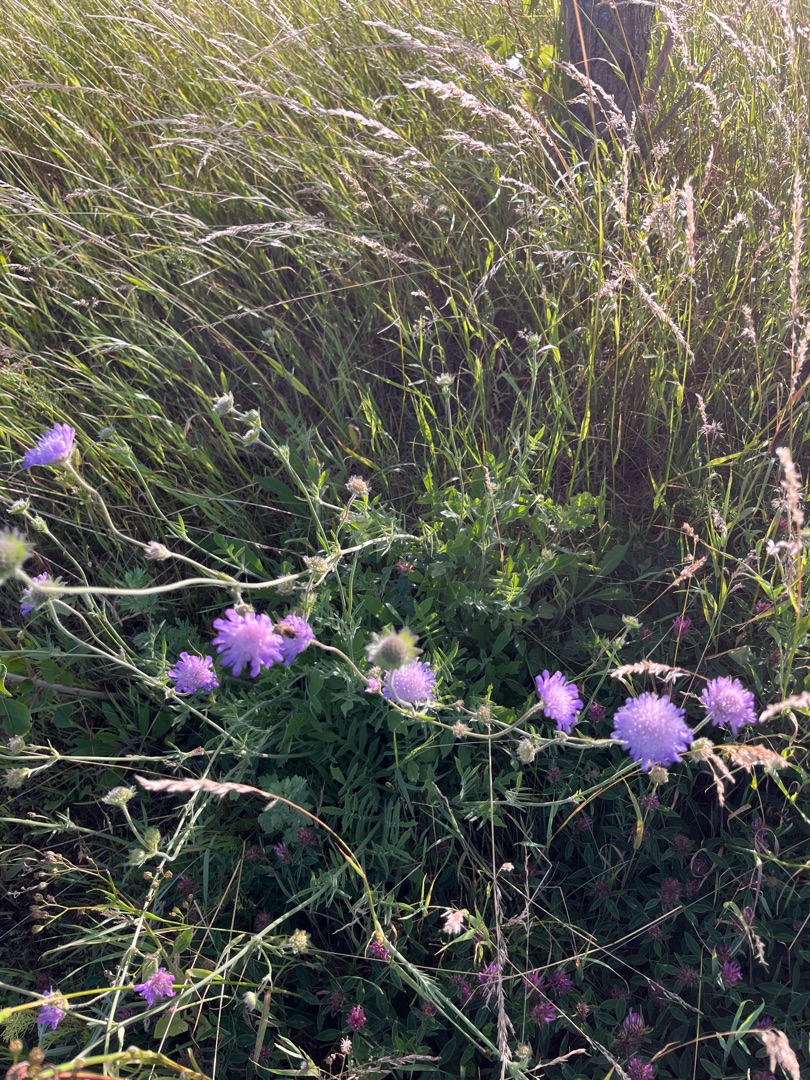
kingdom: Plantae
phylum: Tracheophyta
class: Magnoliopsida
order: Dipsacales
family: Caprifoliaceae
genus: Knautia
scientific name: Knautia arvensis
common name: Blåhat
